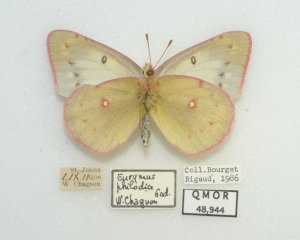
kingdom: Animalia
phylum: Arthropoda
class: Insecta
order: Lepidoptera
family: Pieridae
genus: Colias
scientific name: Colias philodice
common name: Clouded Sulphur
